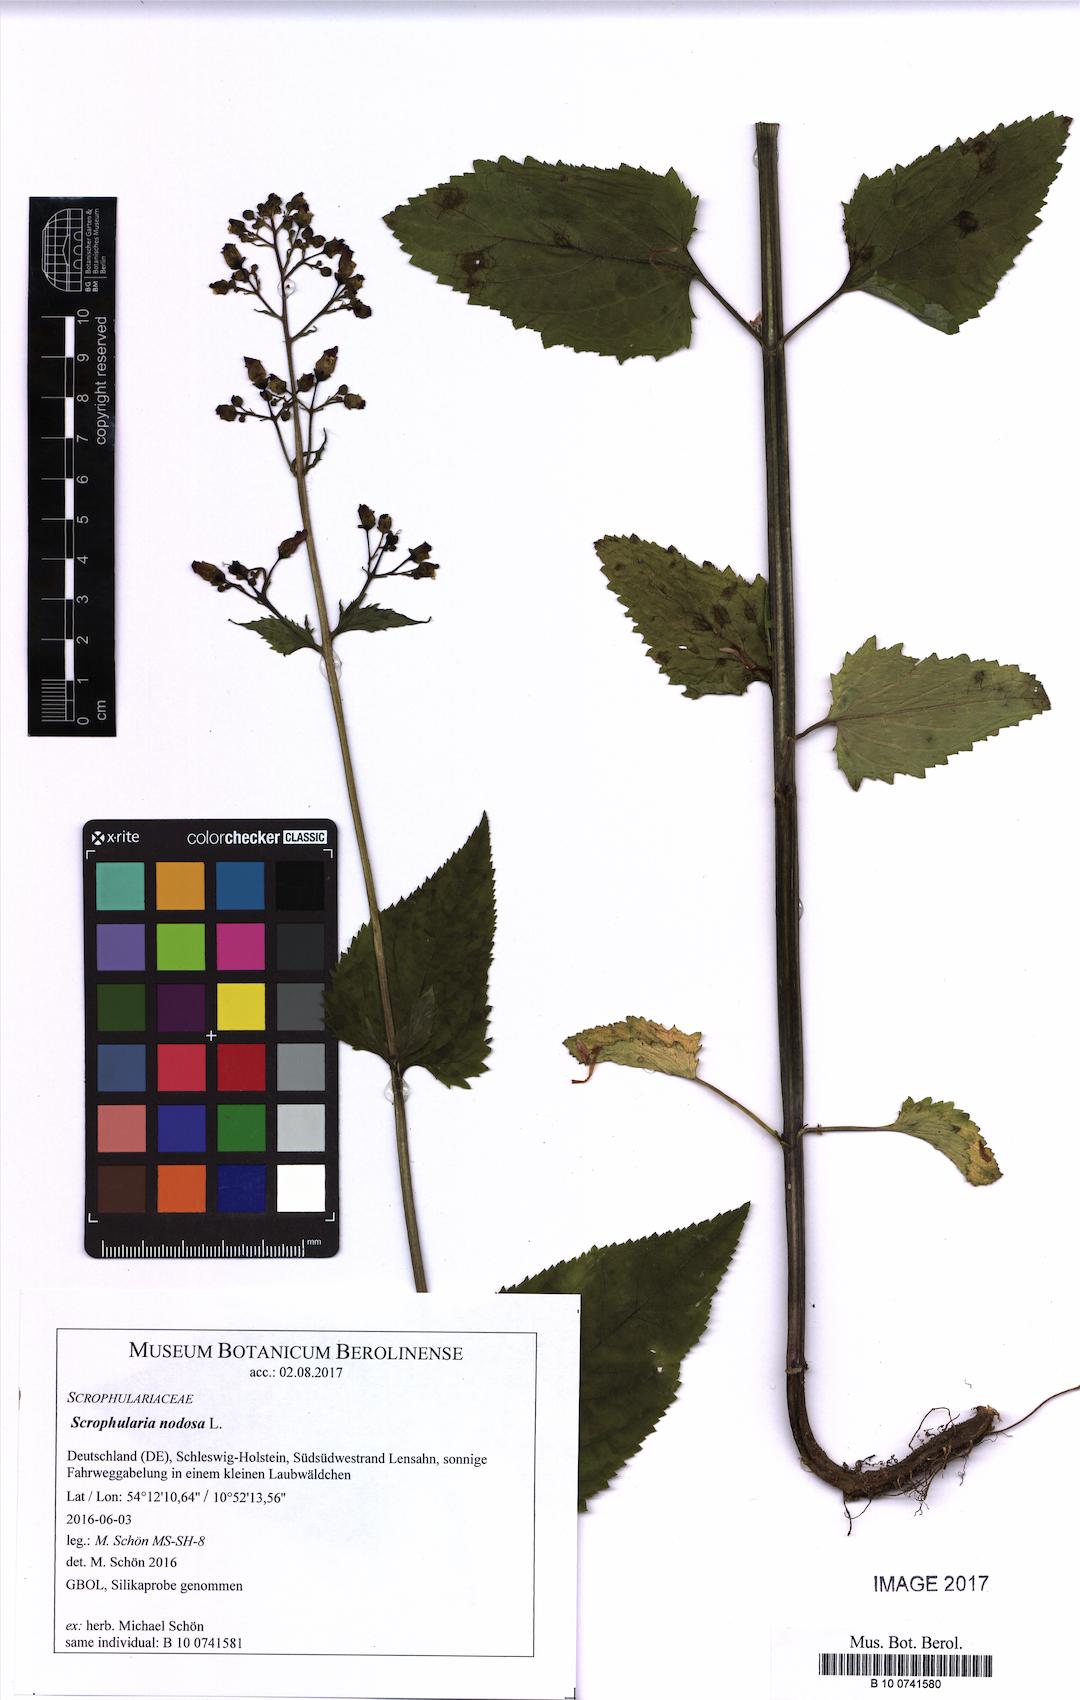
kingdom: Plantae
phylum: Tracheophyta
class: Magnoliopsida
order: Lamiales
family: Scrophulariaceae
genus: Scrophularia
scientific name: Scrophularia nodosa
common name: Common figwort
